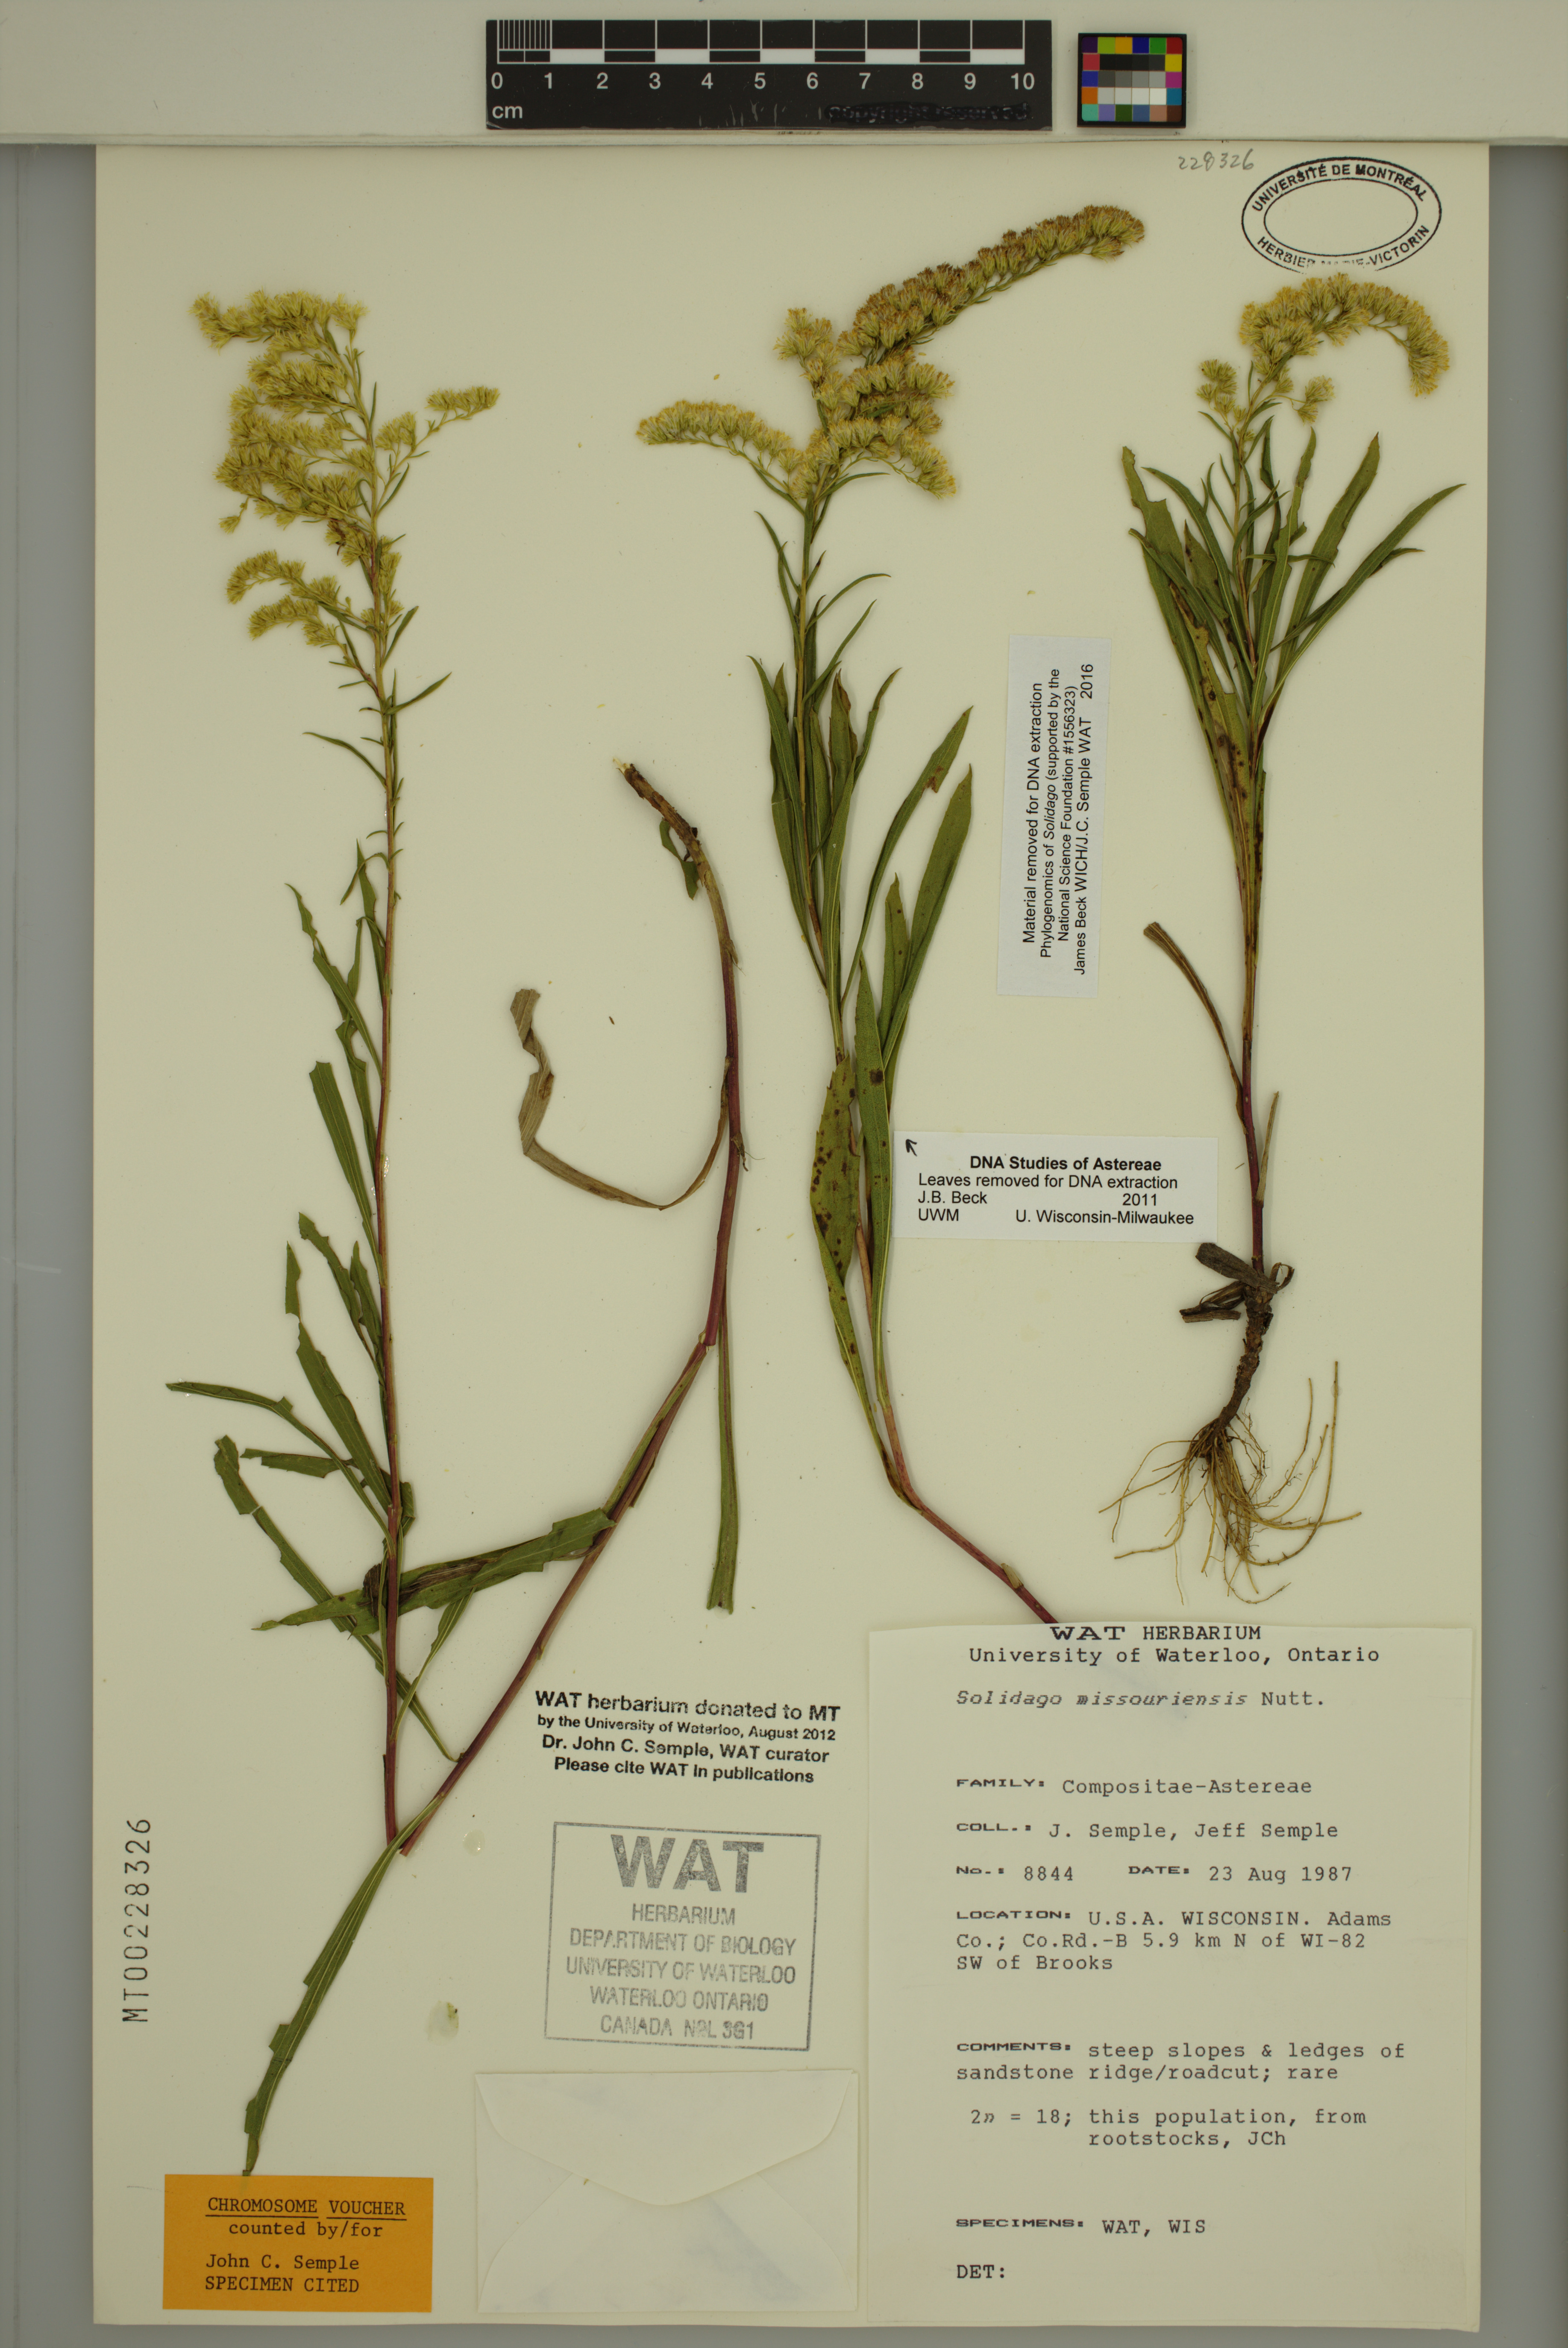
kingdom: Plantae
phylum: Tracheophyta
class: Magnoliopsida
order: Asterales
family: Asteraceae
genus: Solidago
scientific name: Solidago missouriensis
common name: Prairie goldenrod
